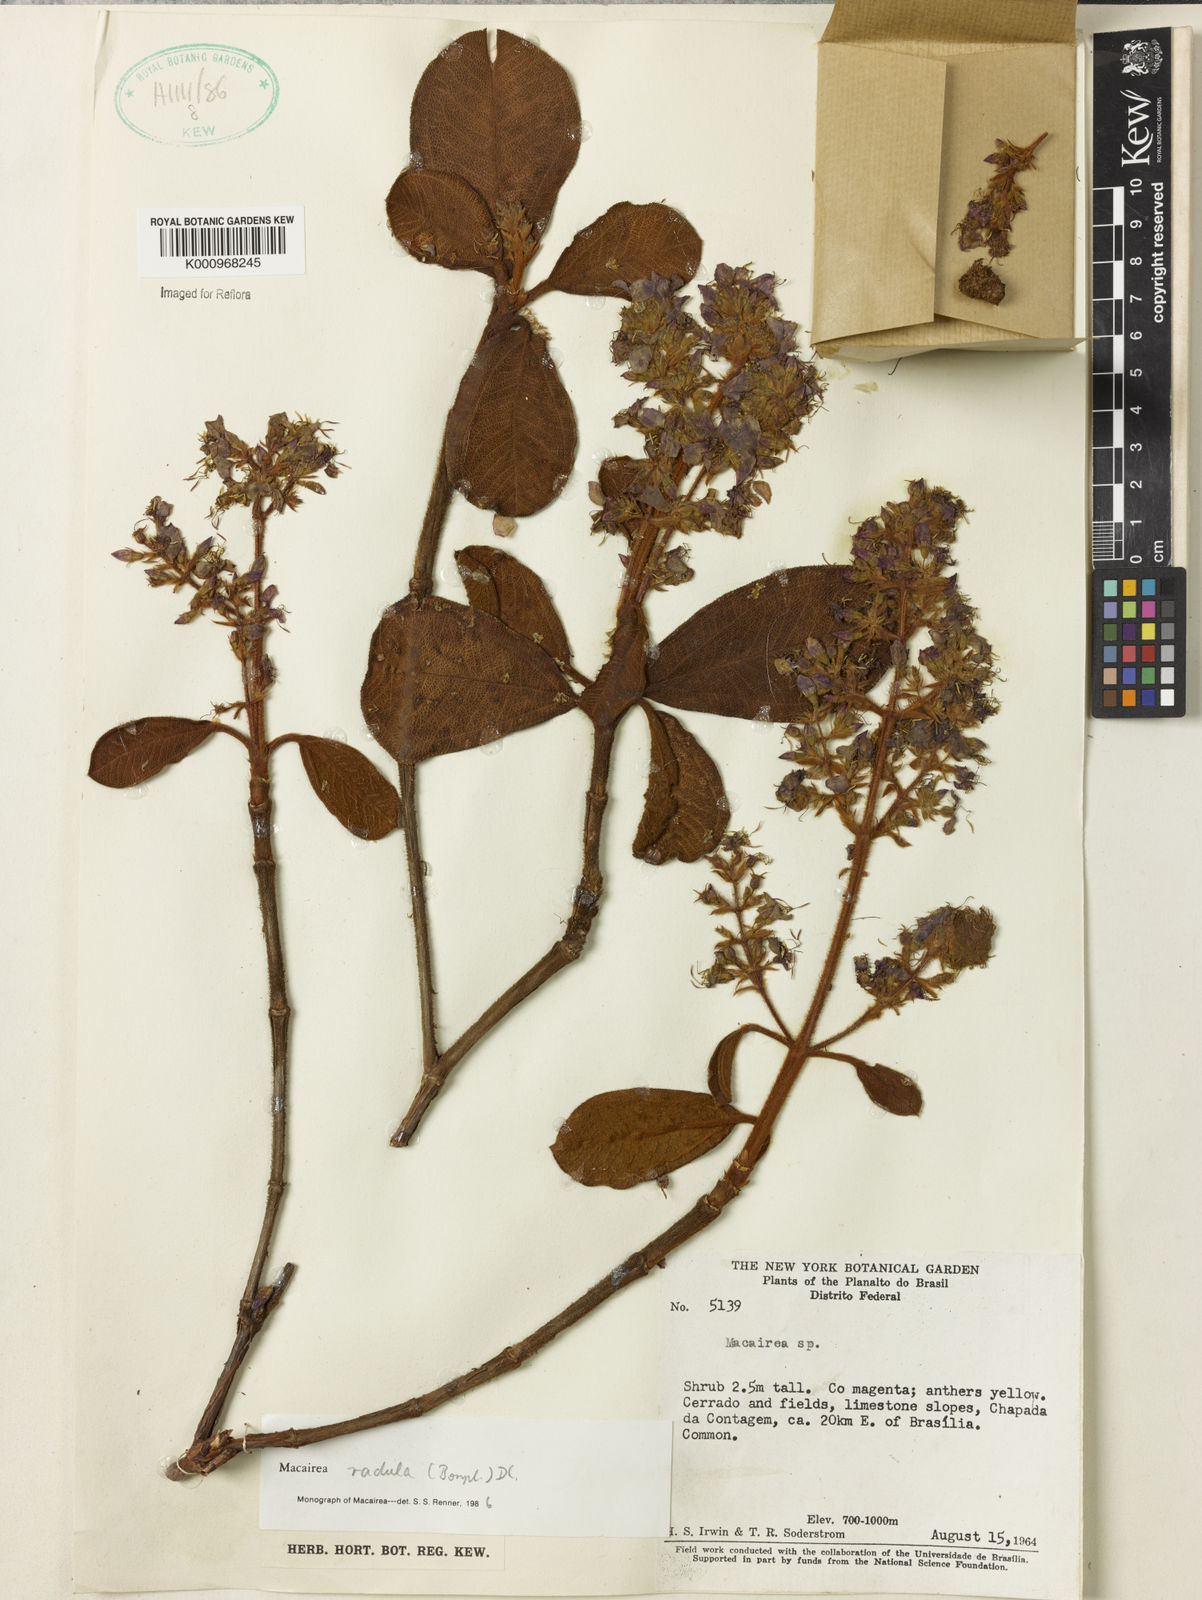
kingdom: Plantae
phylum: Tracheophyta
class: Magnoliopsida
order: Myrtales
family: Melastomataceae
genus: Macairea
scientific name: Macairea radula
